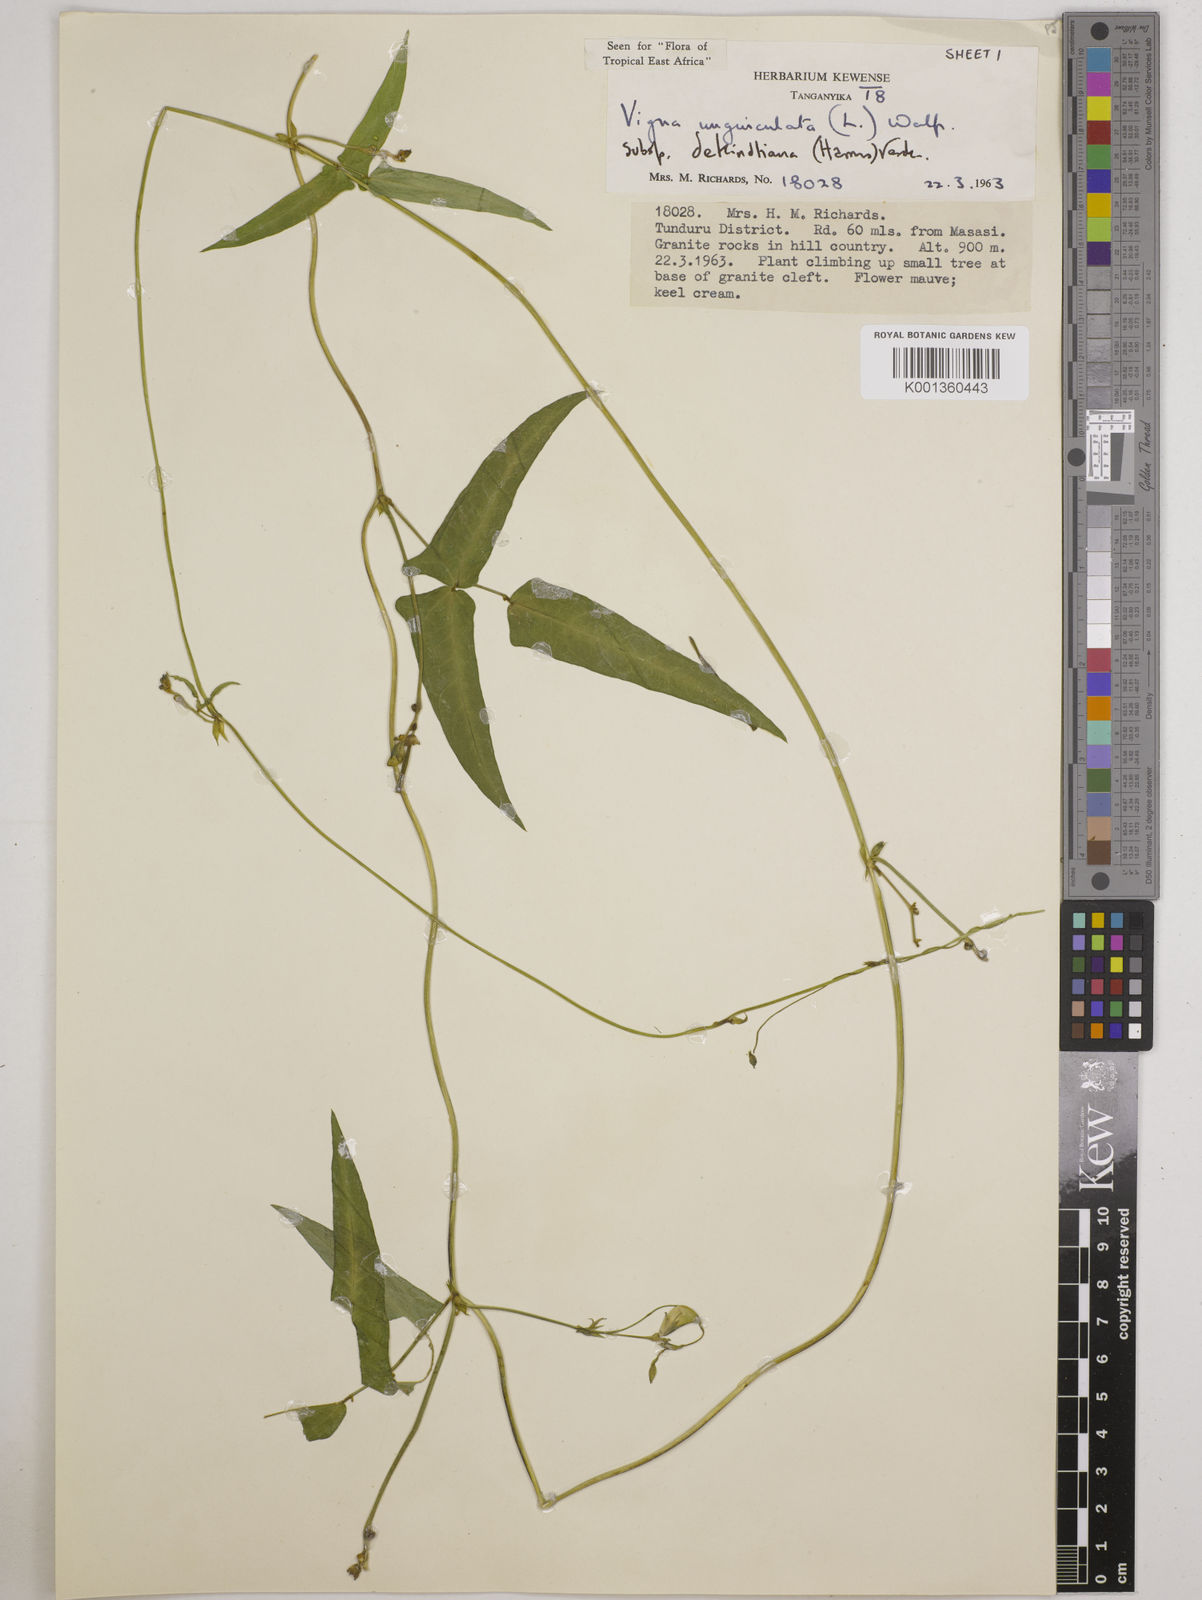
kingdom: Plantae
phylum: Tracheophyta
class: Magnoliopsida
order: Fabales
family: Fabaceae
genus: Vigna
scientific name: Vigna
